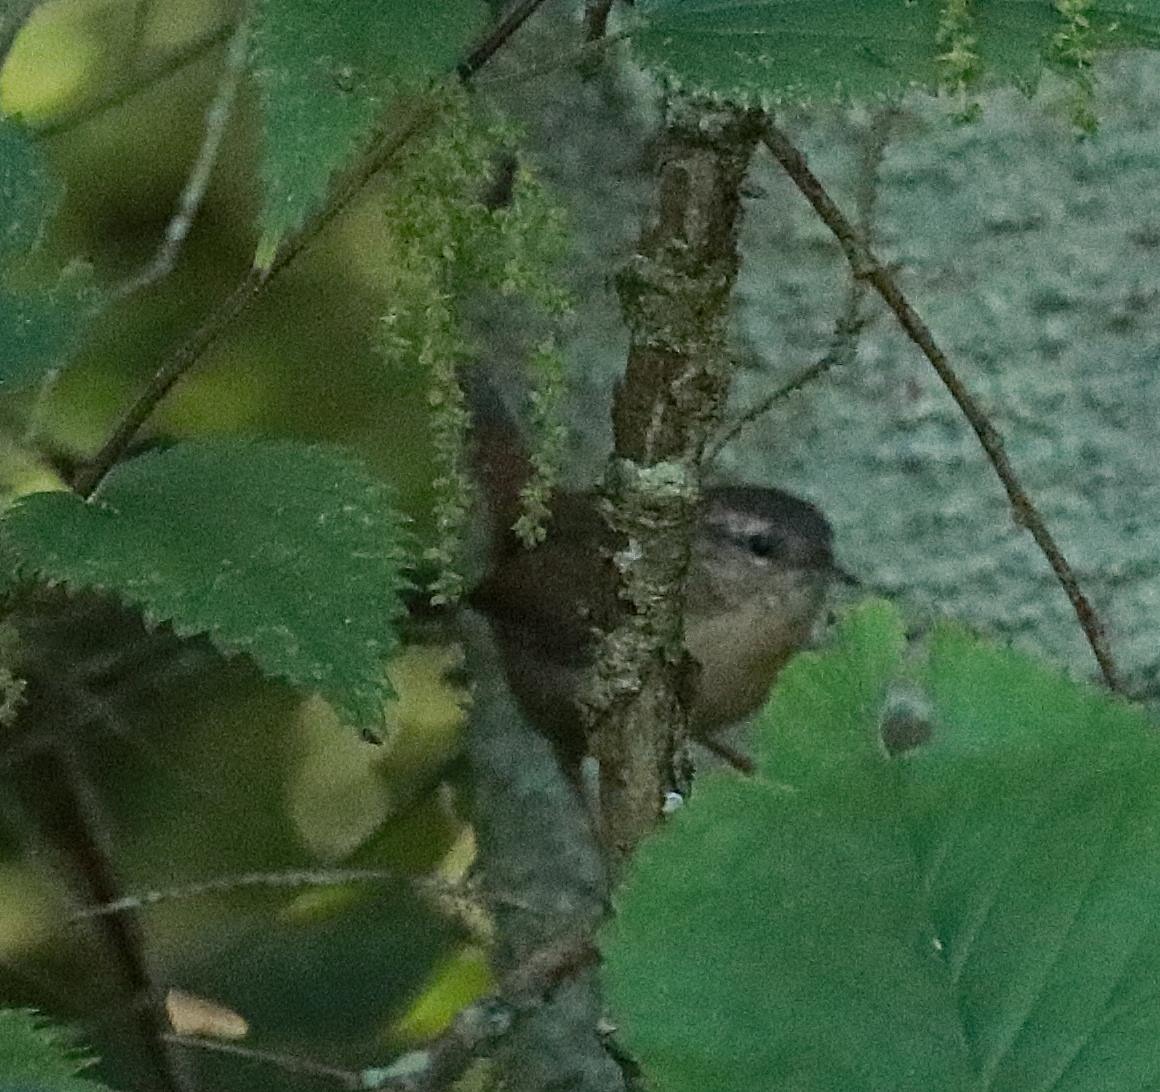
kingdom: Animalia
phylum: Chordata
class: Aves
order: Passeriformes
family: Troglodytidae
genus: Troglodytes
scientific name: Troglodytes troglodytes
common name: Gærdesmutte
